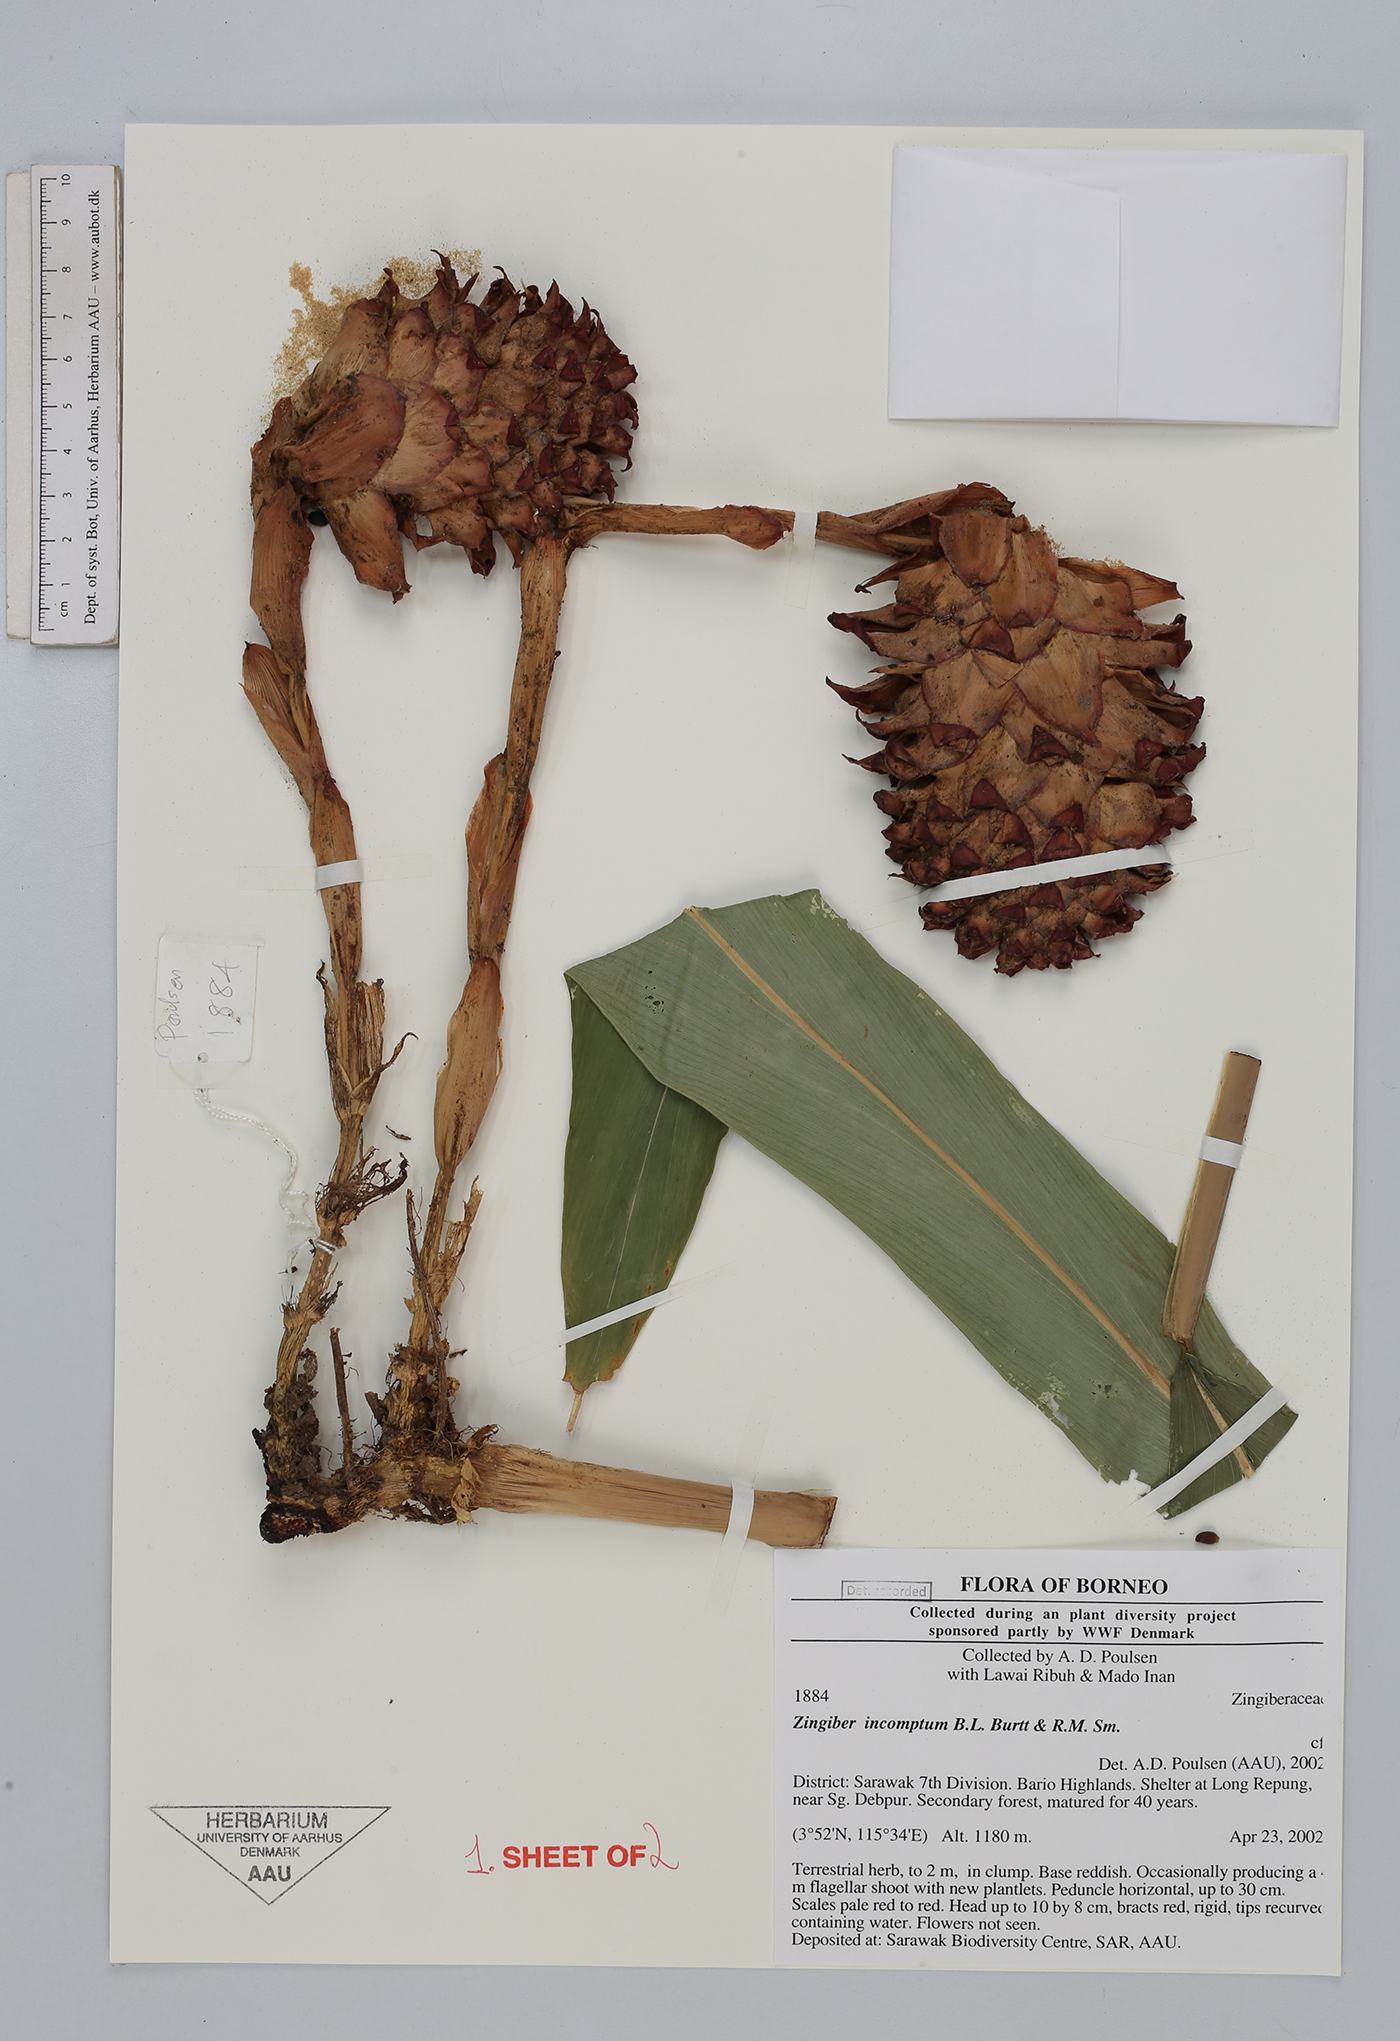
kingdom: Plantae
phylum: Tracheophyta
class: Liliopsida
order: Zingiberales
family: Zingiberaceae
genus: Zingiber
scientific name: Zingiber incomptum
